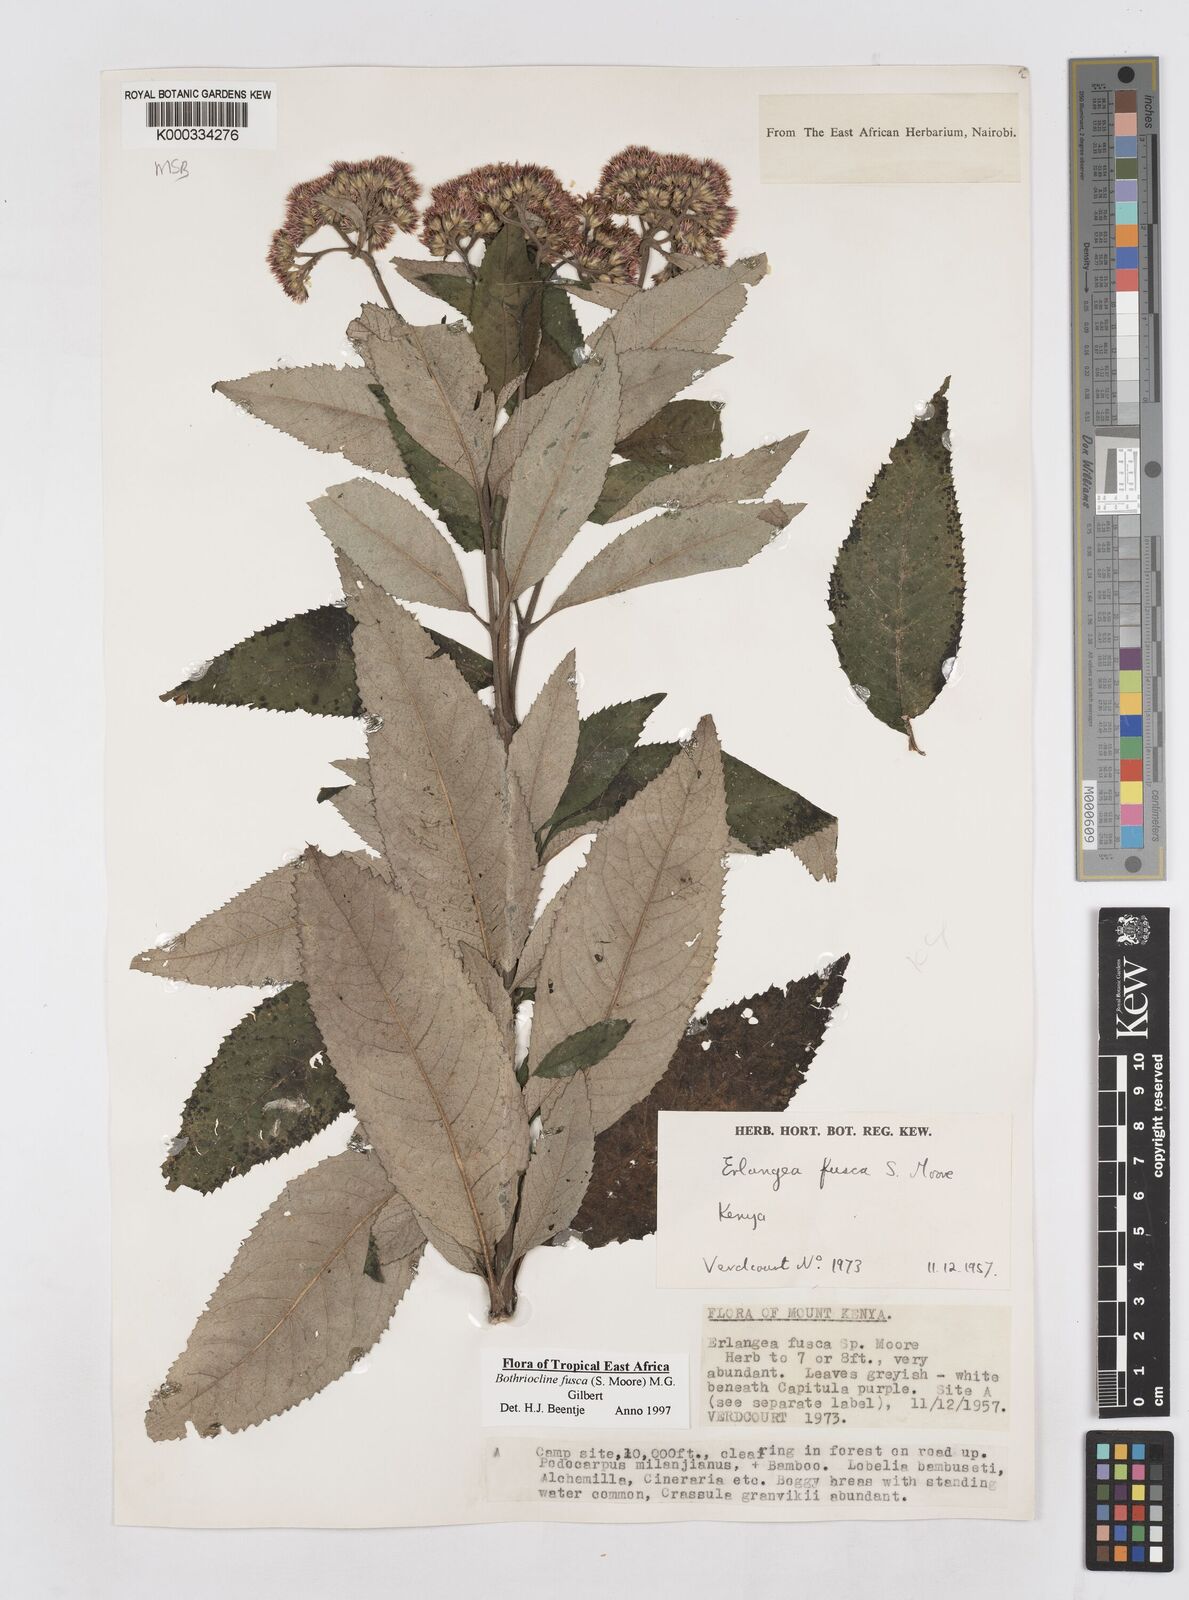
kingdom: Plantae
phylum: Tracheophyta
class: Magnoliopsida
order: Asterales
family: Asteraceae
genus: Bothriocline
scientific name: Bothriocline fusca
